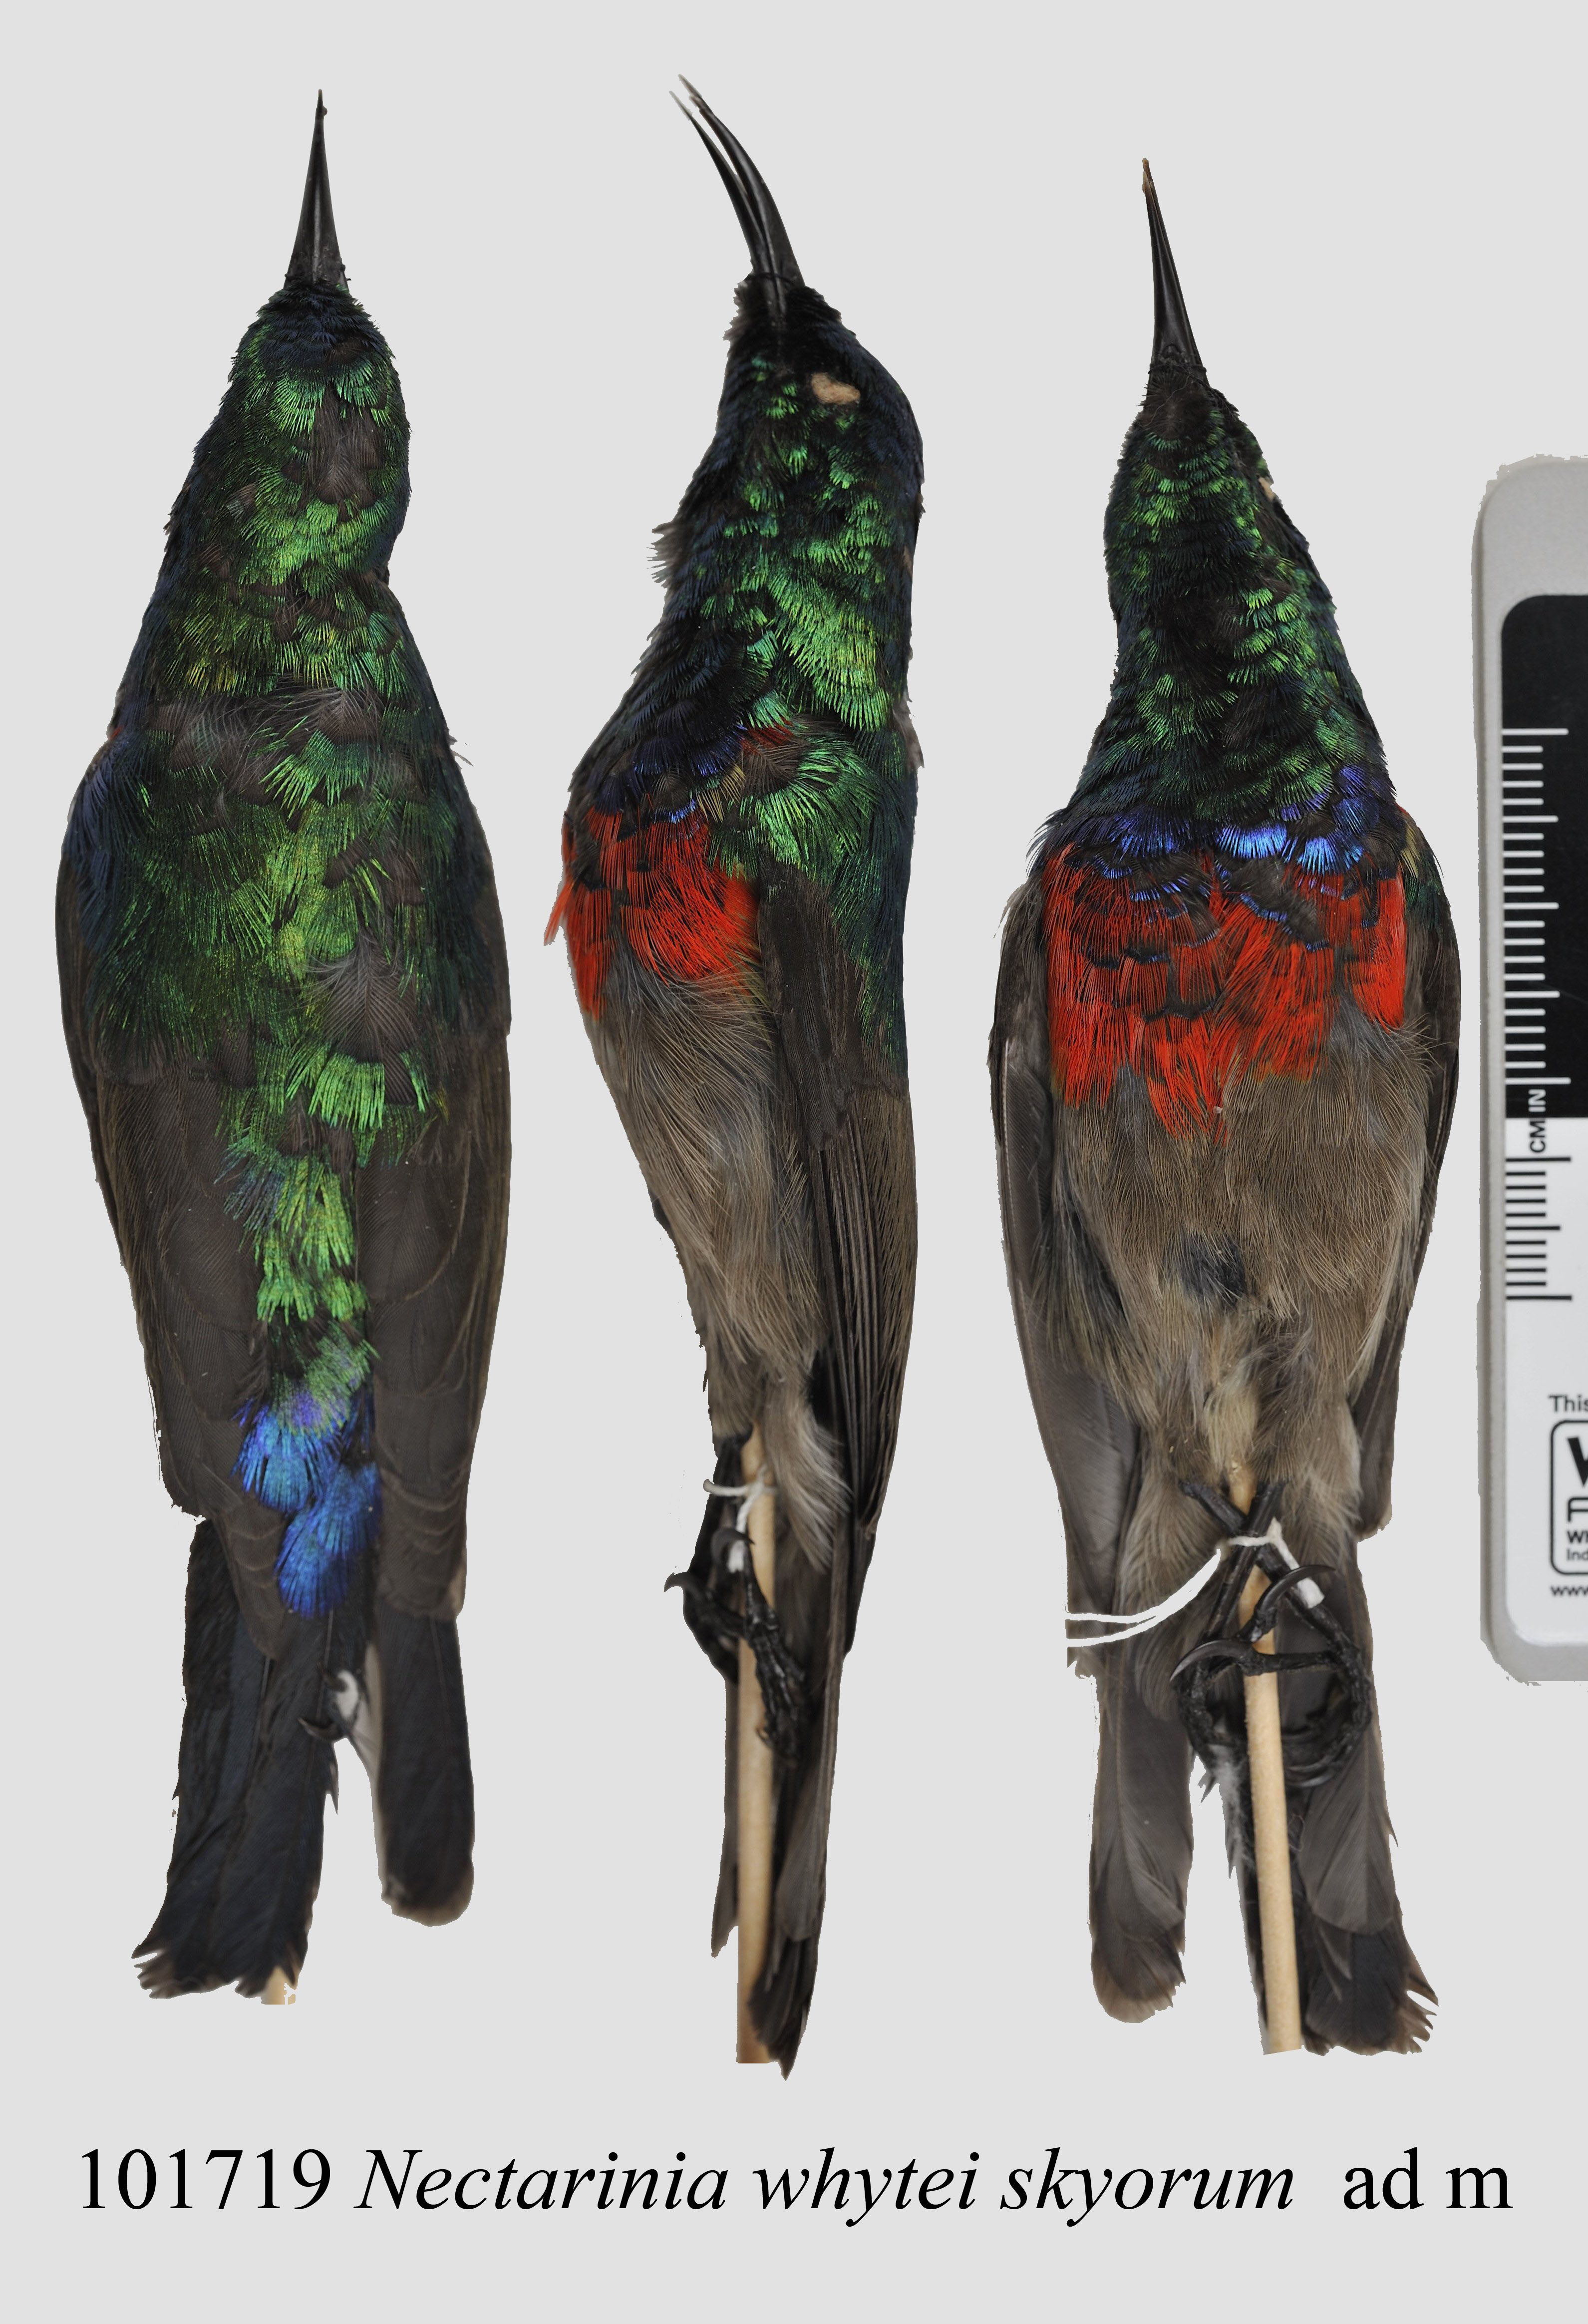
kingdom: Animalia
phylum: Chordata
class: Aves
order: Passeriformes
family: Nectariniidae
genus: Cinnyris
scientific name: Cinnyris ludovicensis
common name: Montane double-collared sunbird
